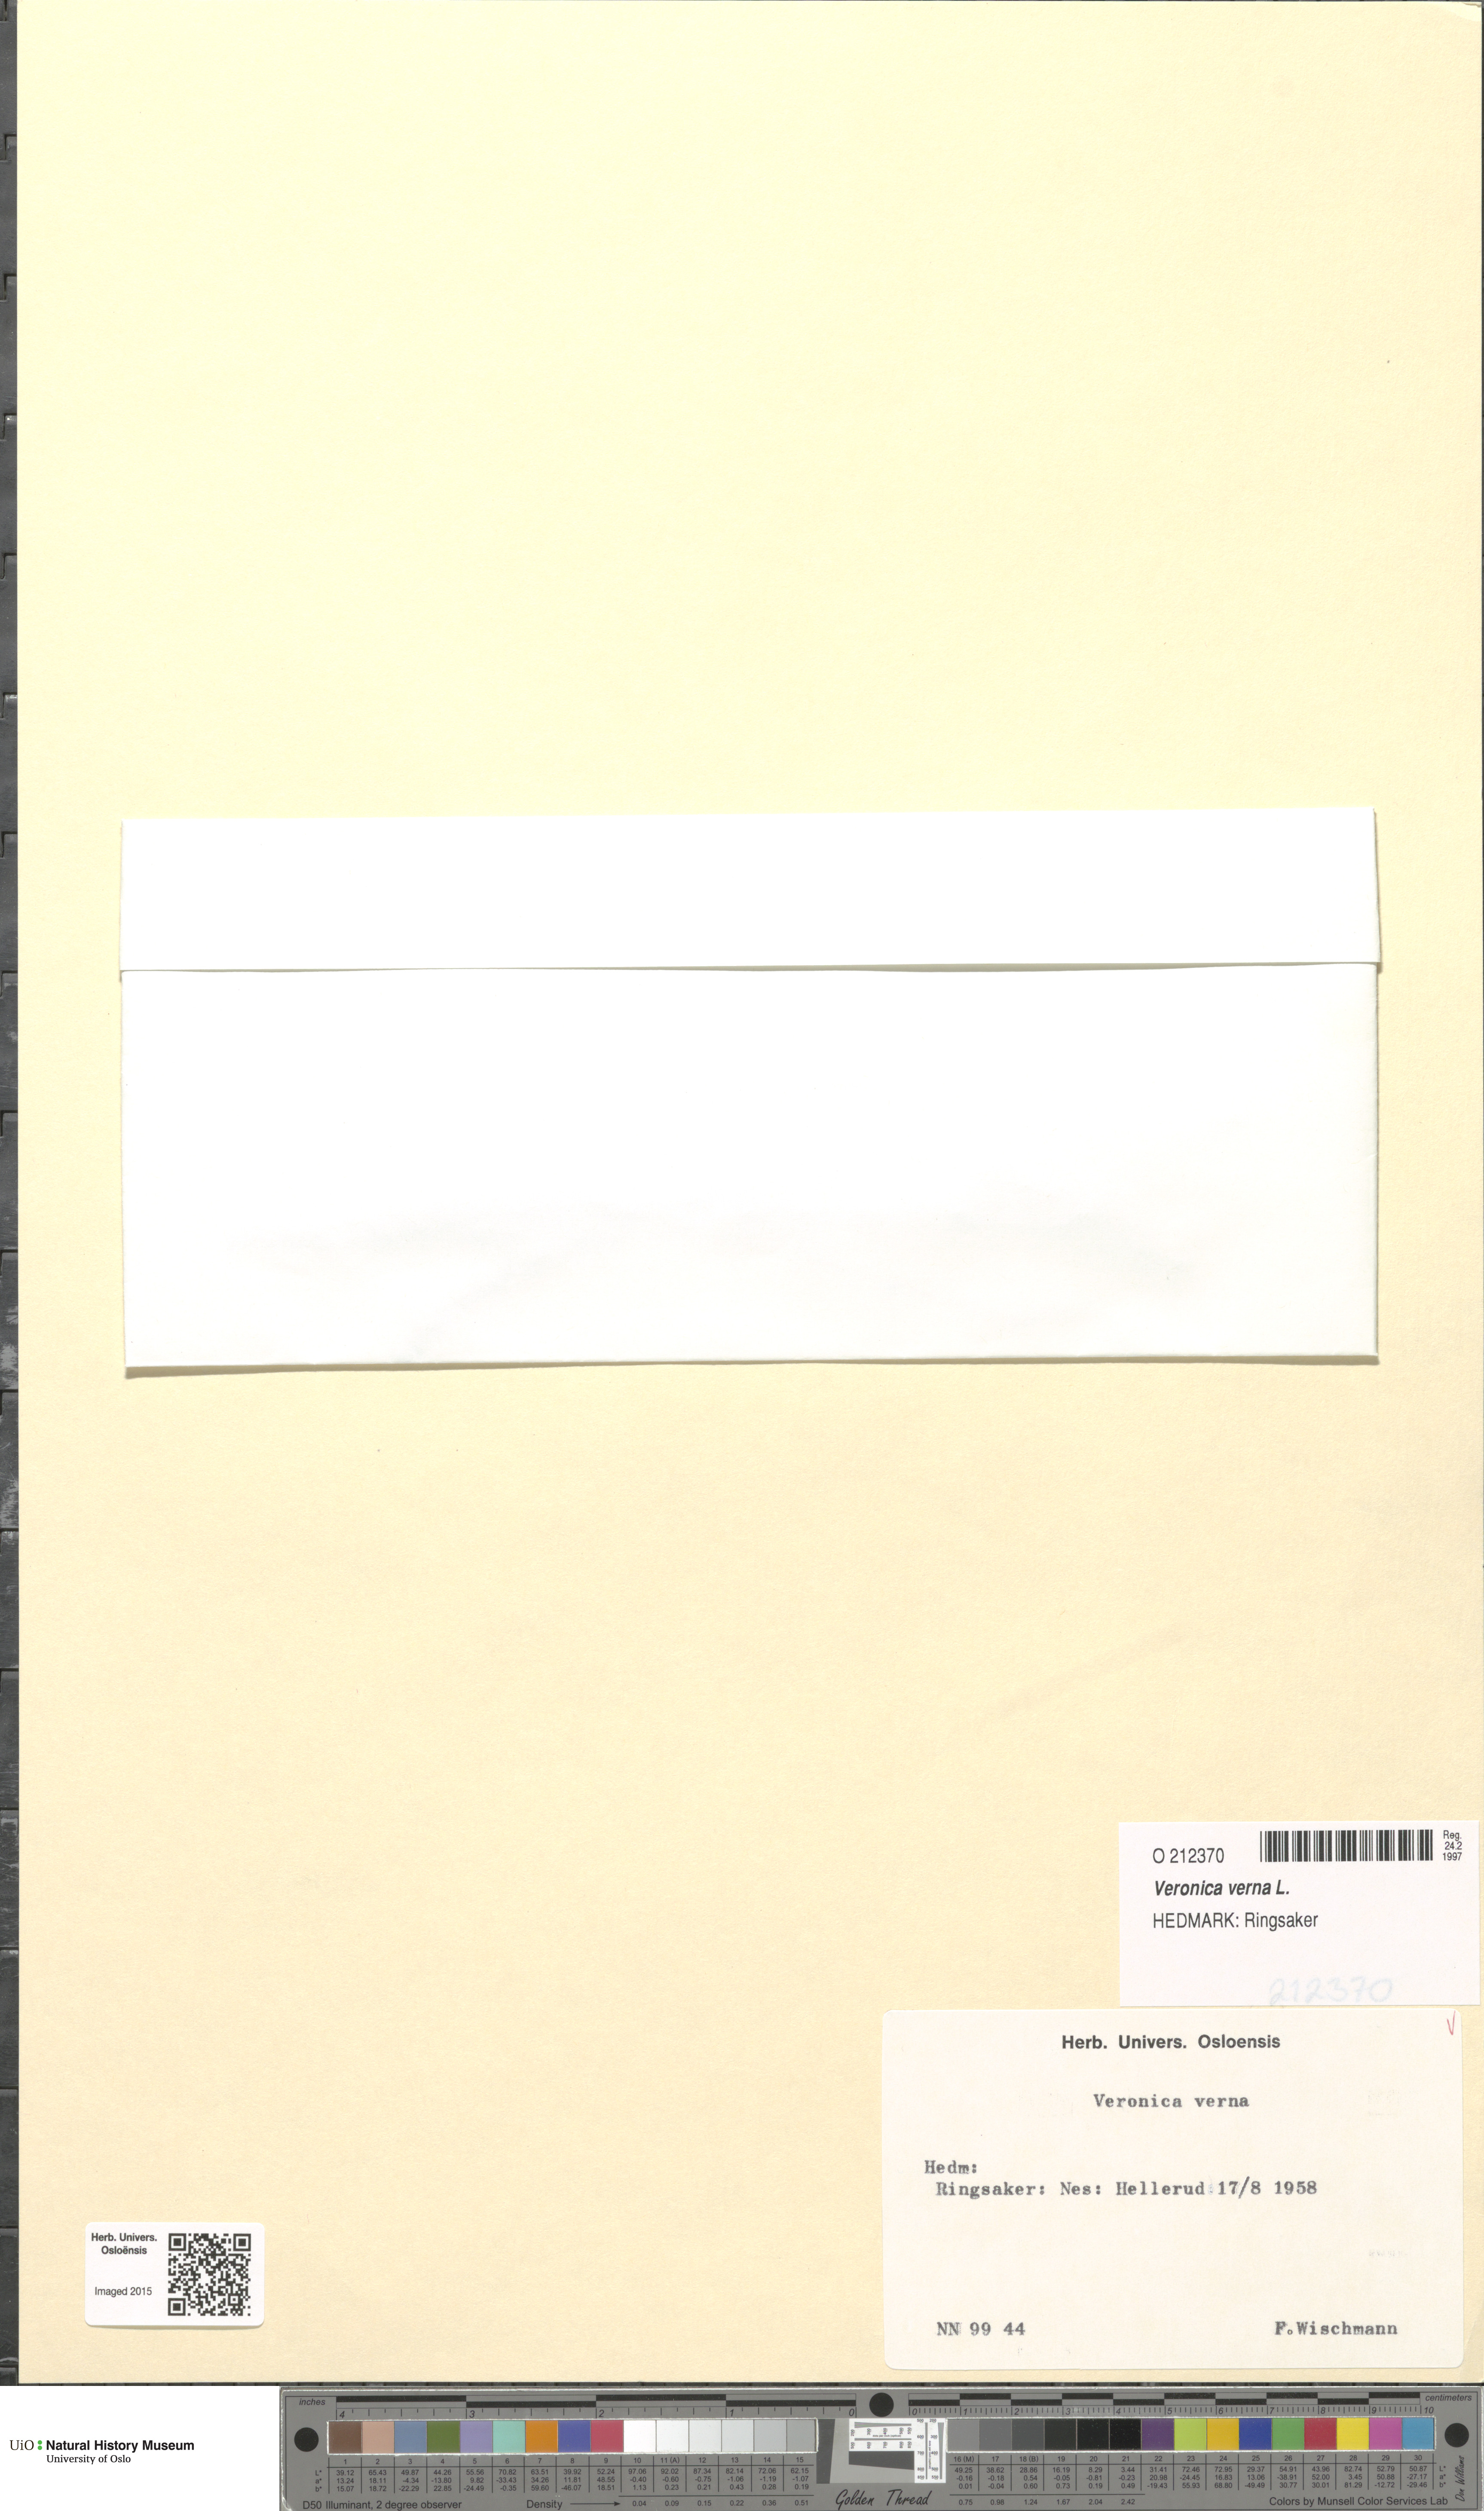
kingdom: Plantae
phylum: Tracheophyta
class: Magnoliopsida
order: Lamiales
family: Plantaginaceae
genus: Veronica
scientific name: Veronica verna
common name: Spring speedwell
